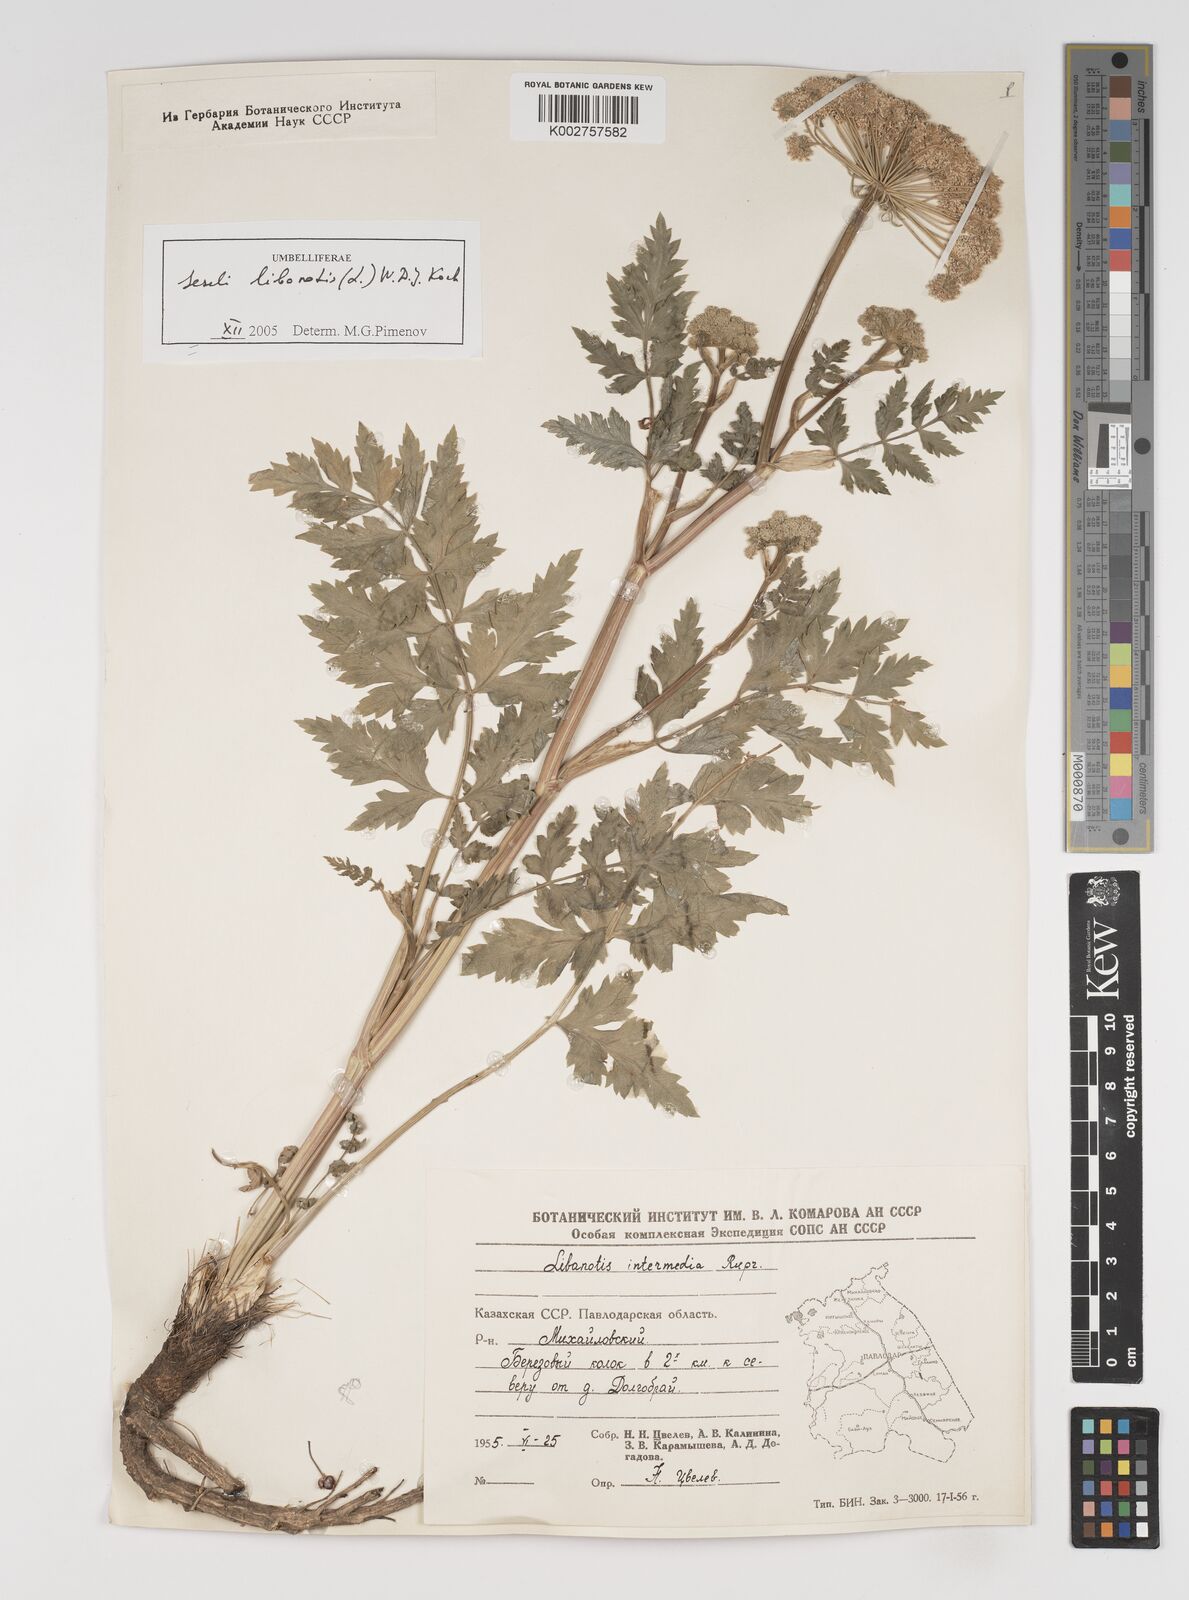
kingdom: Plantae
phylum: Tracheophyta
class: Magnoliopsida
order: Apiales
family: Apiaceae
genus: Seseli
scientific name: Seseli libanotis
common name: Mooncarrot
